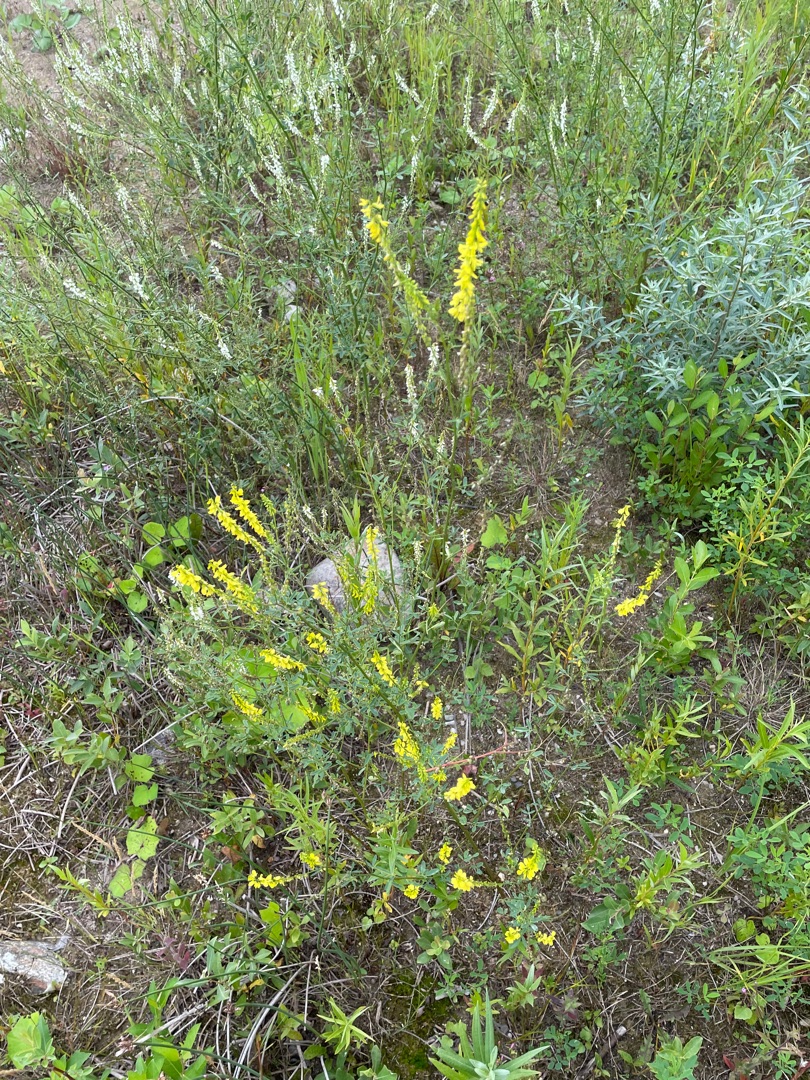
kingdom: Plantae
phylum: Tracheophyta
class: Magnoliopsida
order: Fabales
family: Fabaceae
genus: Melilotus
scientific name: Melilotus officinalis
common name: Mark-stenkløver
